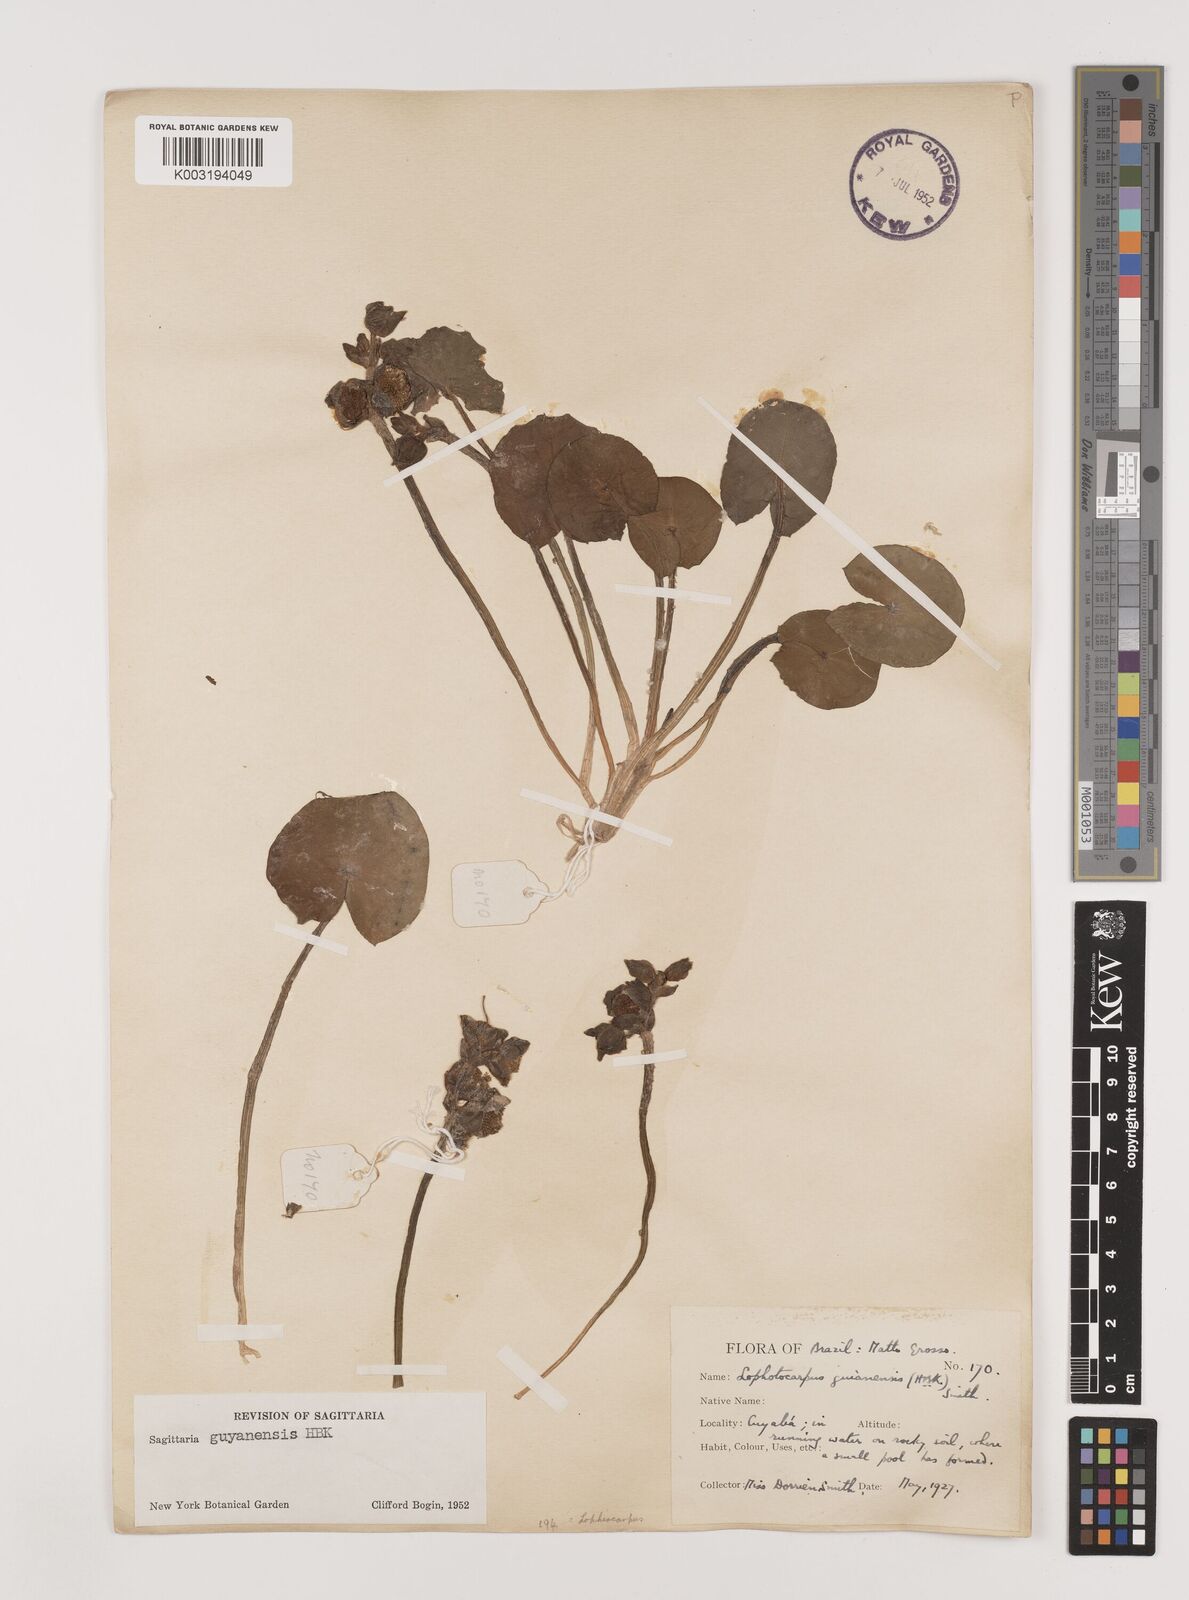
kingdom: Plantae
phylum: Tracheophyta
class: Liliopsida
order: Alismatales
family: Alismataceae
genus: Sagittaria
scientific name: Sagittaria guayanensis
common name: Guyanese arrowhead
